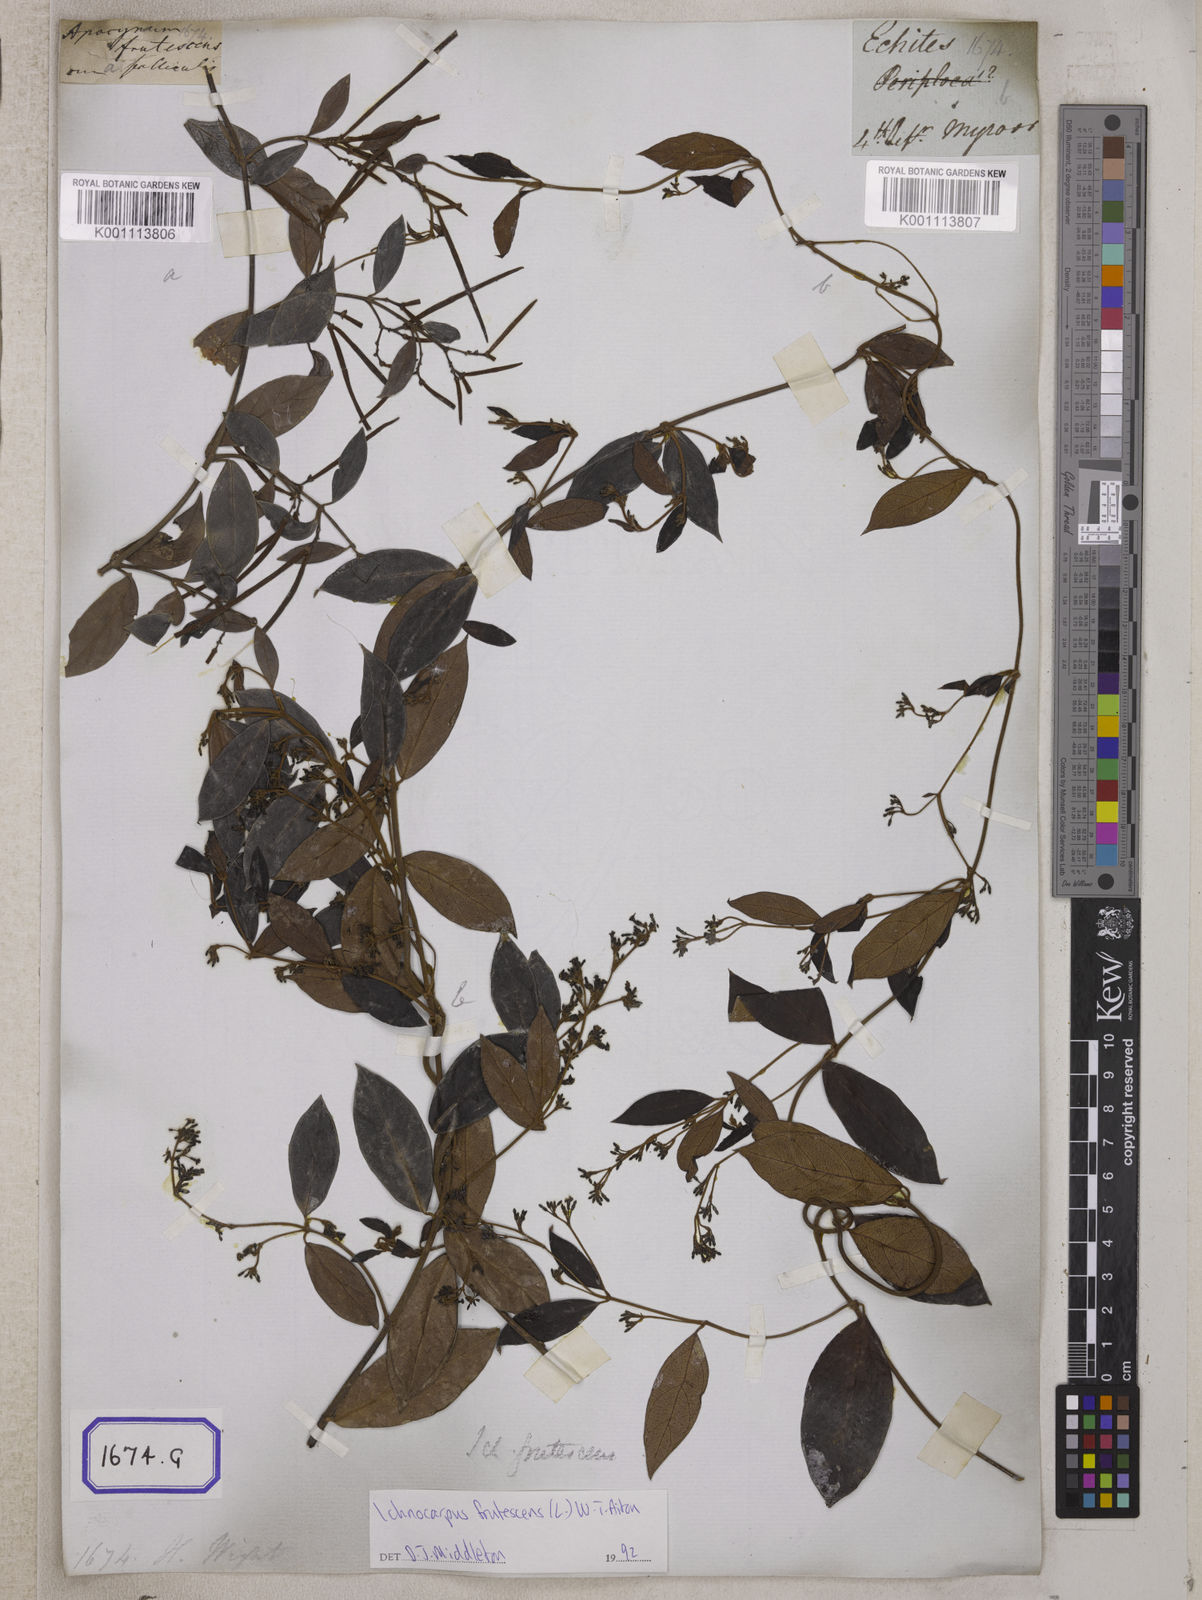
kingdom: Plantae
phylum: Tracheophyta
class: Magnoliopsida
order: Gentianales
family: Apocynaceae
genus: Ichnocarpus
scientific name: Ichnocarpus
